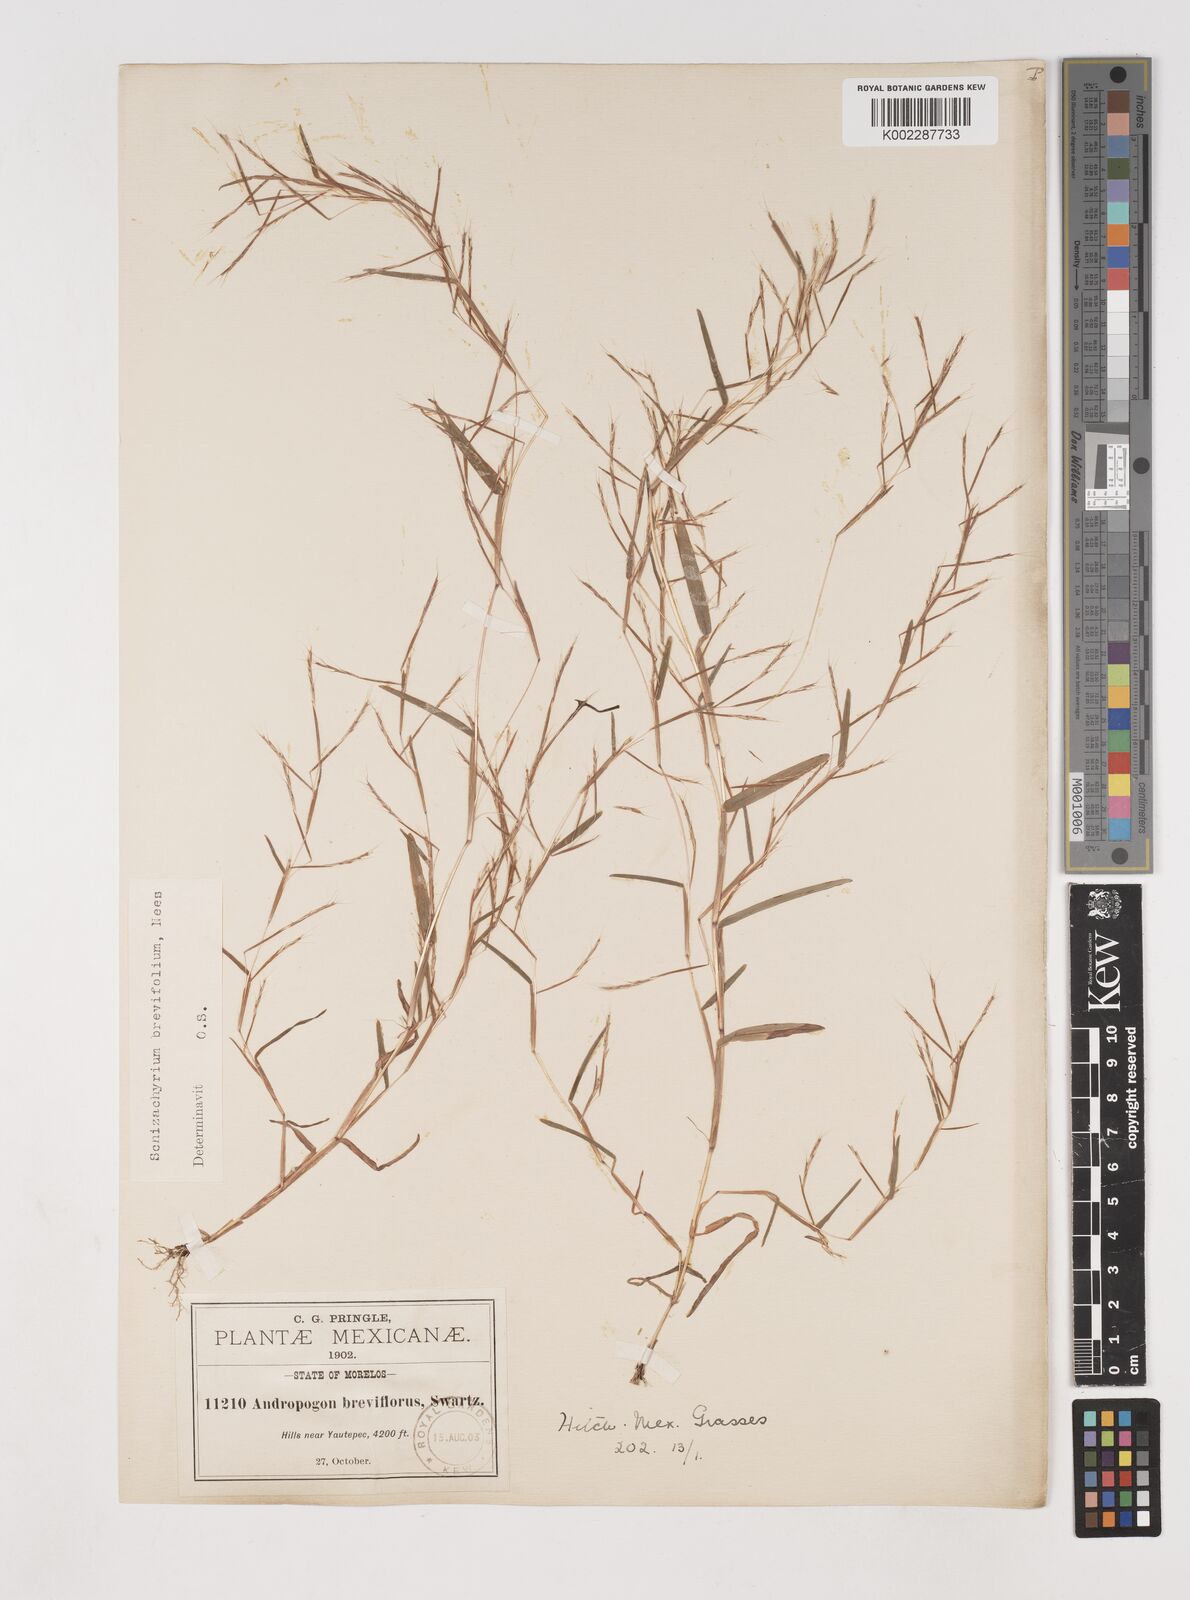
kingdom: Plantae
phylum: Tracheophyta
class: Liliopsida
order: Poales
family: Poaceae
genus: Schizachyrium
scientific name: Schizachyrium brevifolium
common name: Serillo dulce
